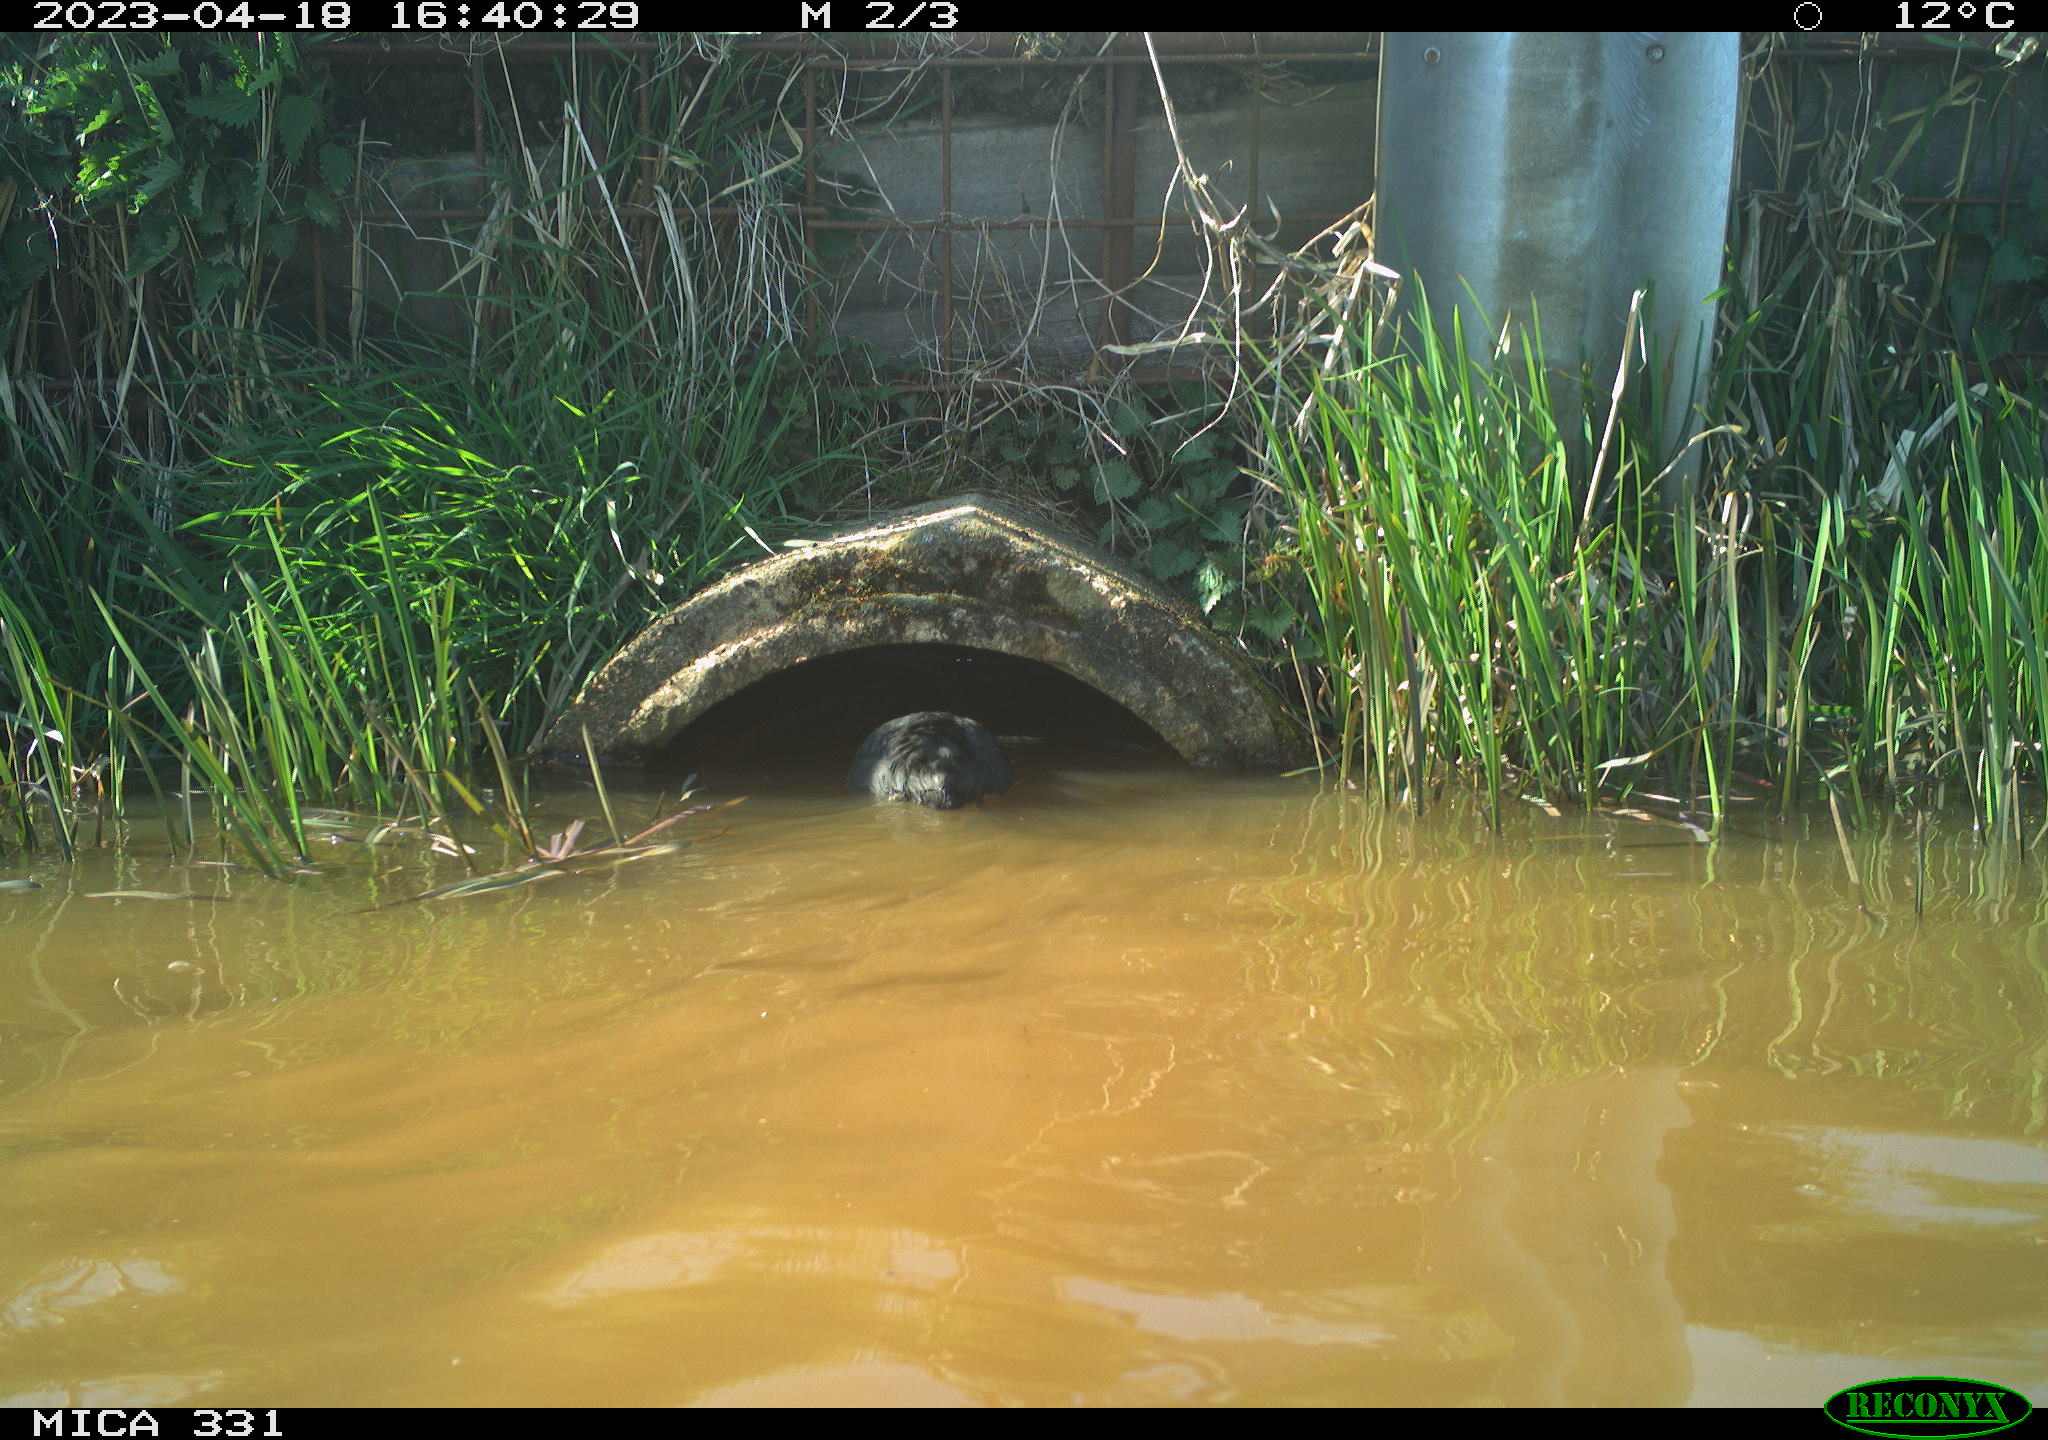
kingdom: Animalia
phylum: Chordata
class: Aves
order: Gruiformes
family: Rallidae
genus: Gallinula
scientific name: Gallinula chloropus
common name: Common moorhen
